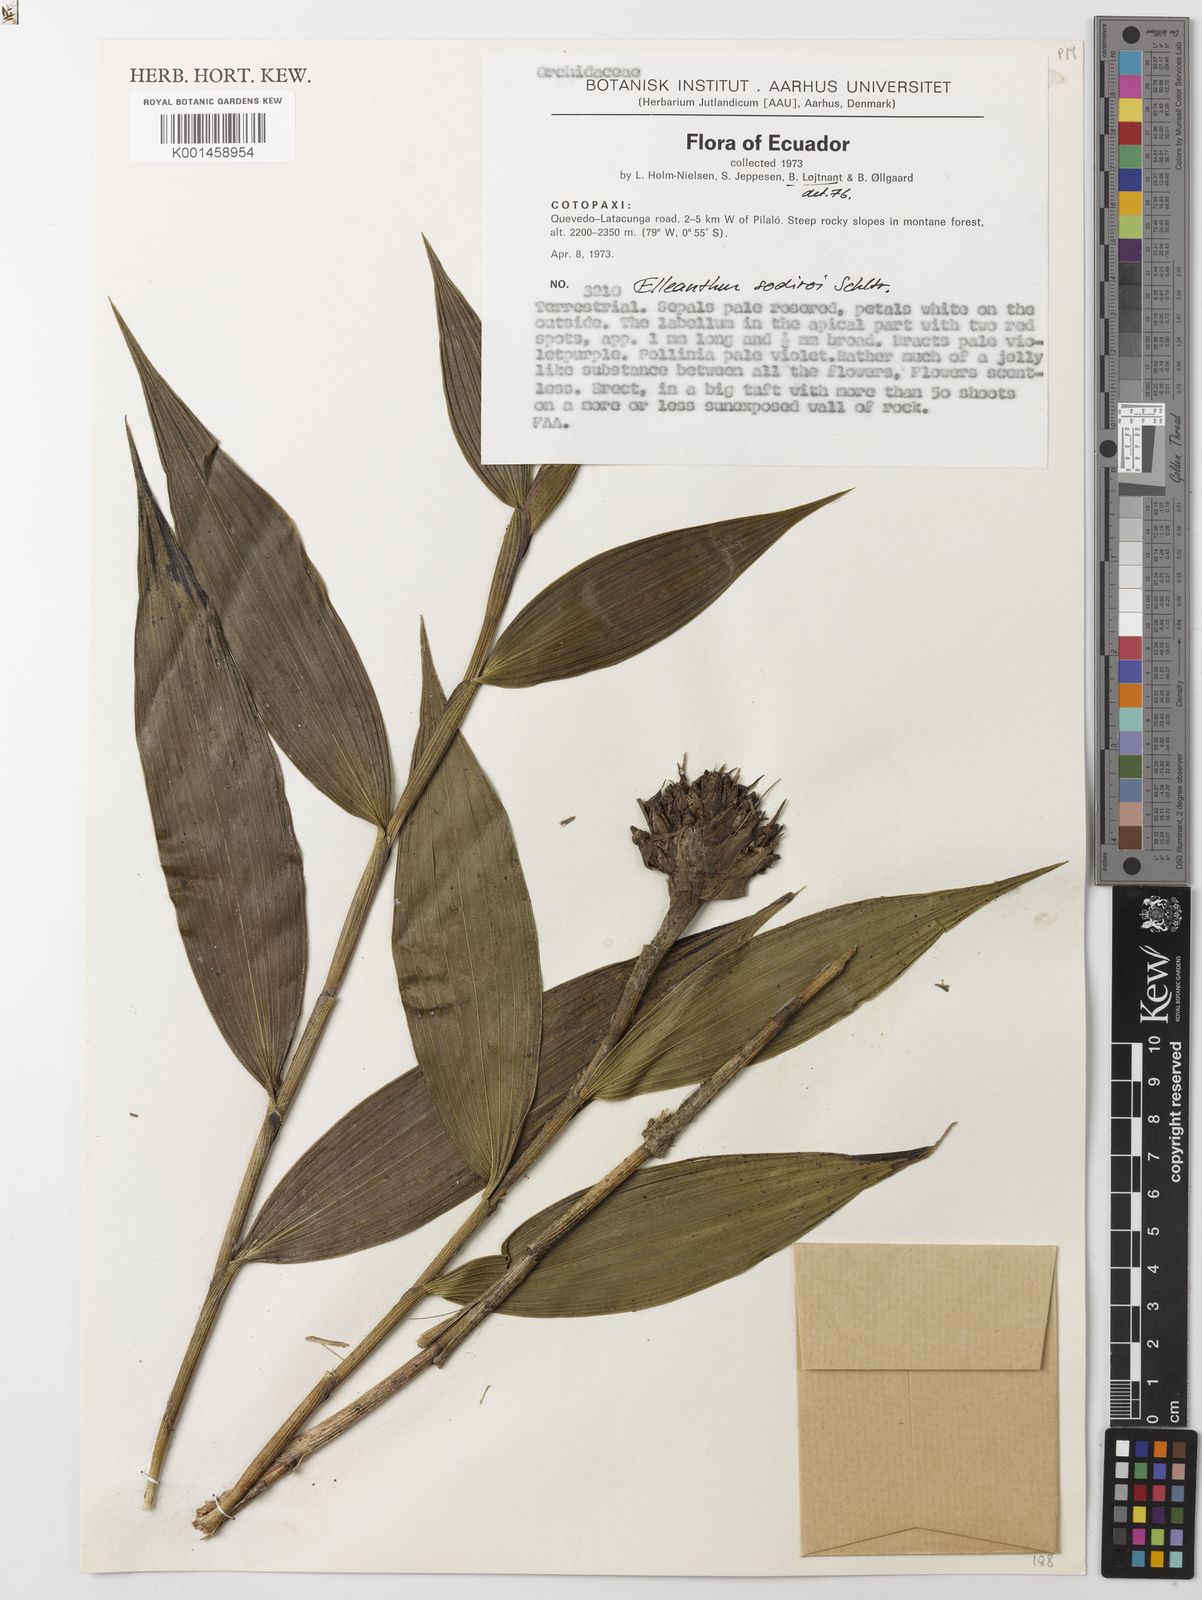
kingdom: Plantae
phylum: Tracheophyta
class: Liliopsida
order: Asparagales
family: Orchidaceae
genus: Elleanthus
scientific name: Elleanthus sodiroi
